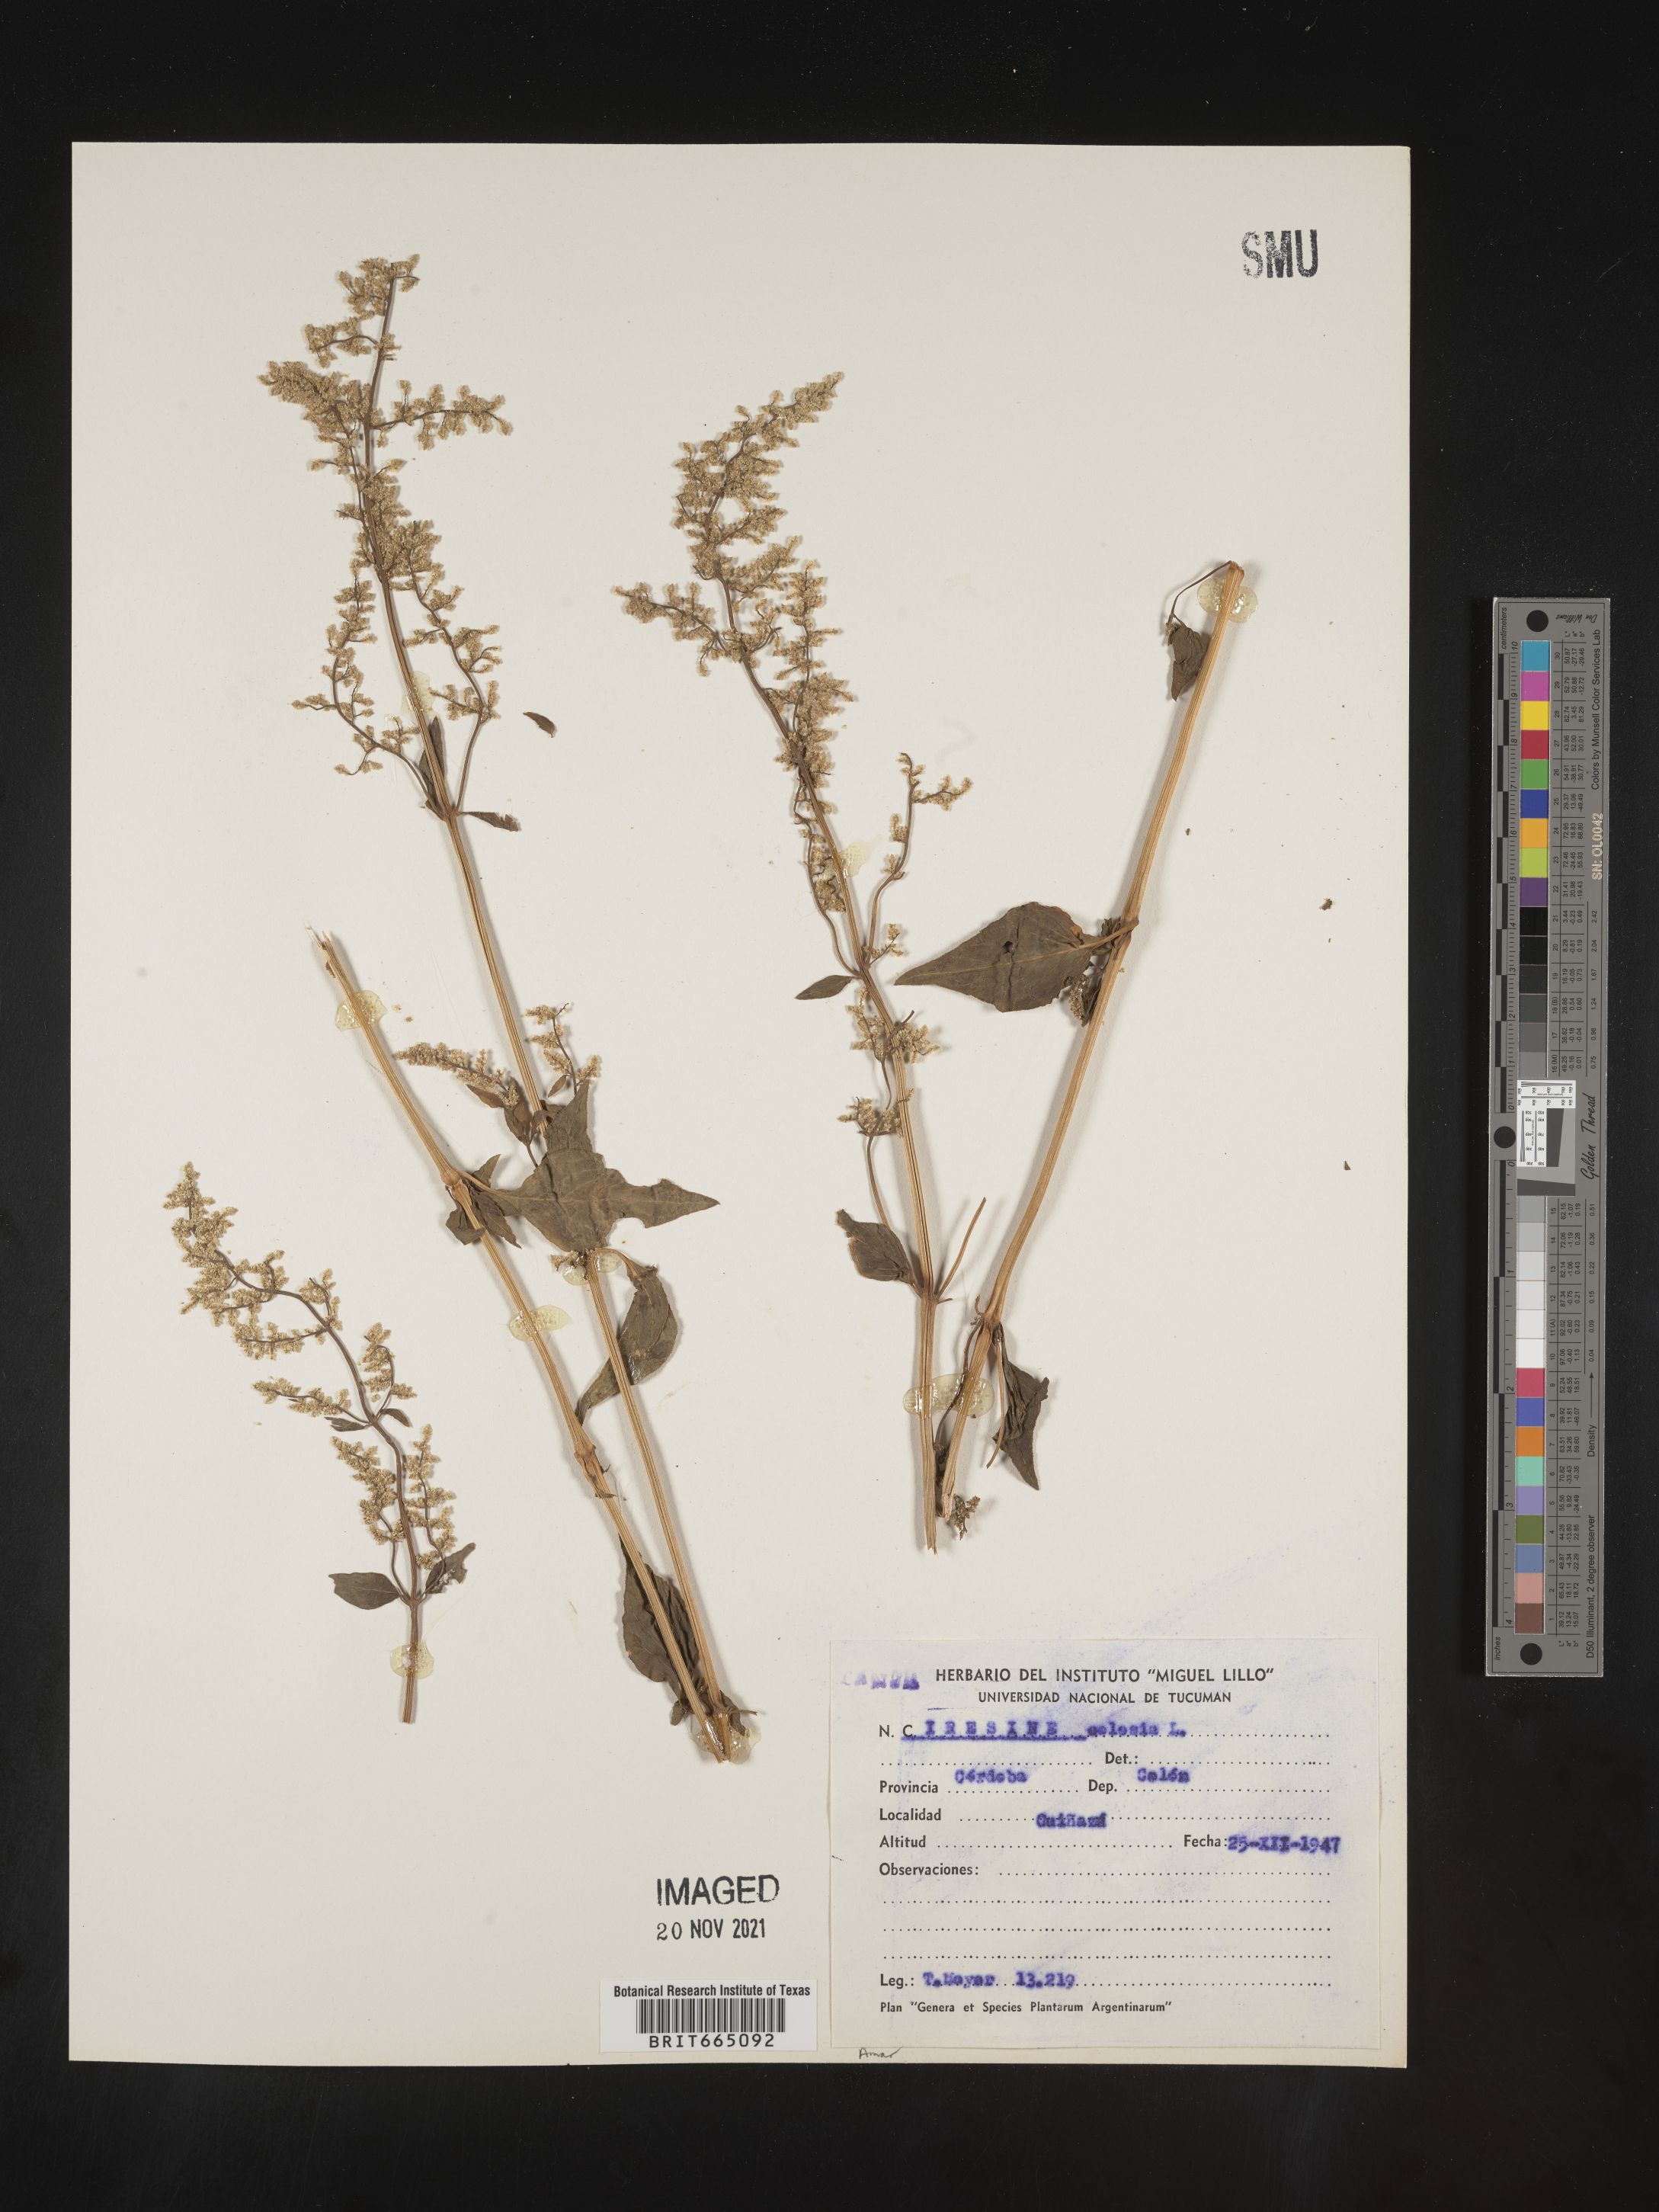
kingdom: Plantae
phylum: Tracheophyta
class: Magnoliopsida
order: Caryophyllales
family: Amaranthaceae
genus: Iresine
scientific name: Iresine
